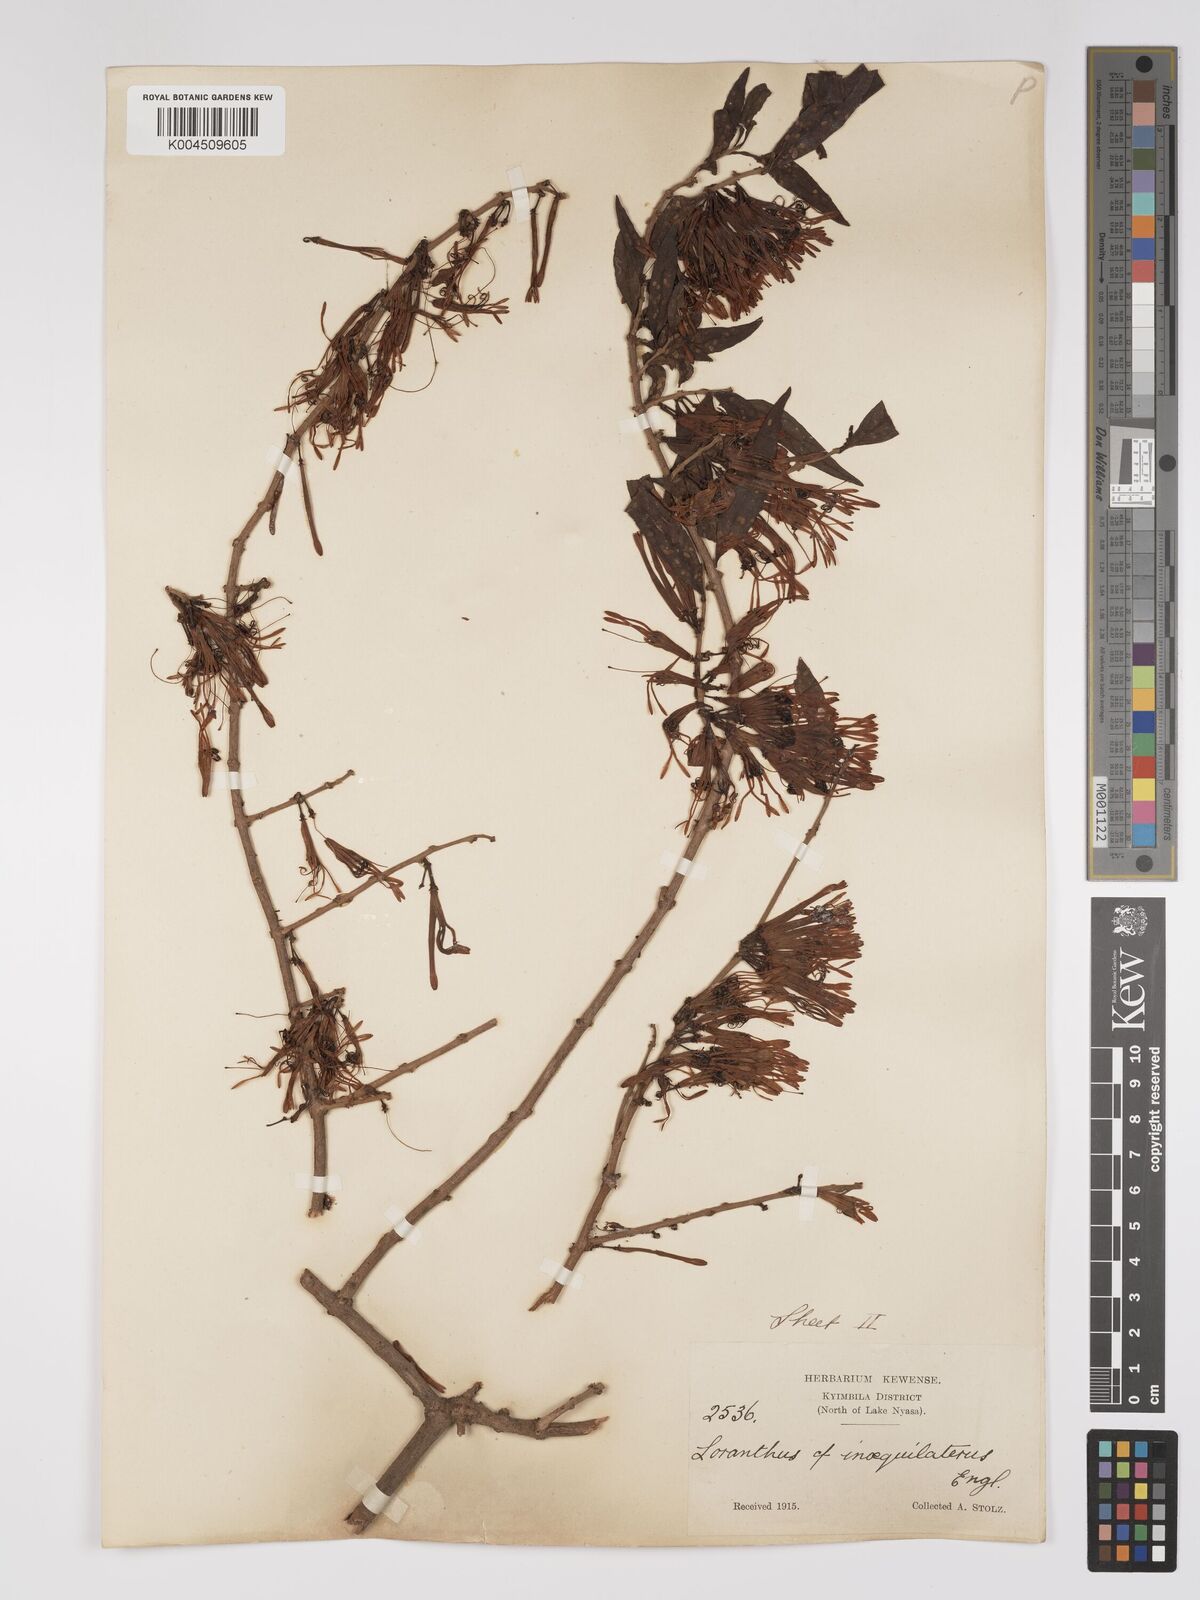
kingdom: Plantae
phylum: Tracheophyta
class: Magnoliopsida
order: Santalales
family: Loranthaceae
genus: Englerina
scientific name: Englerina inaequilatera
